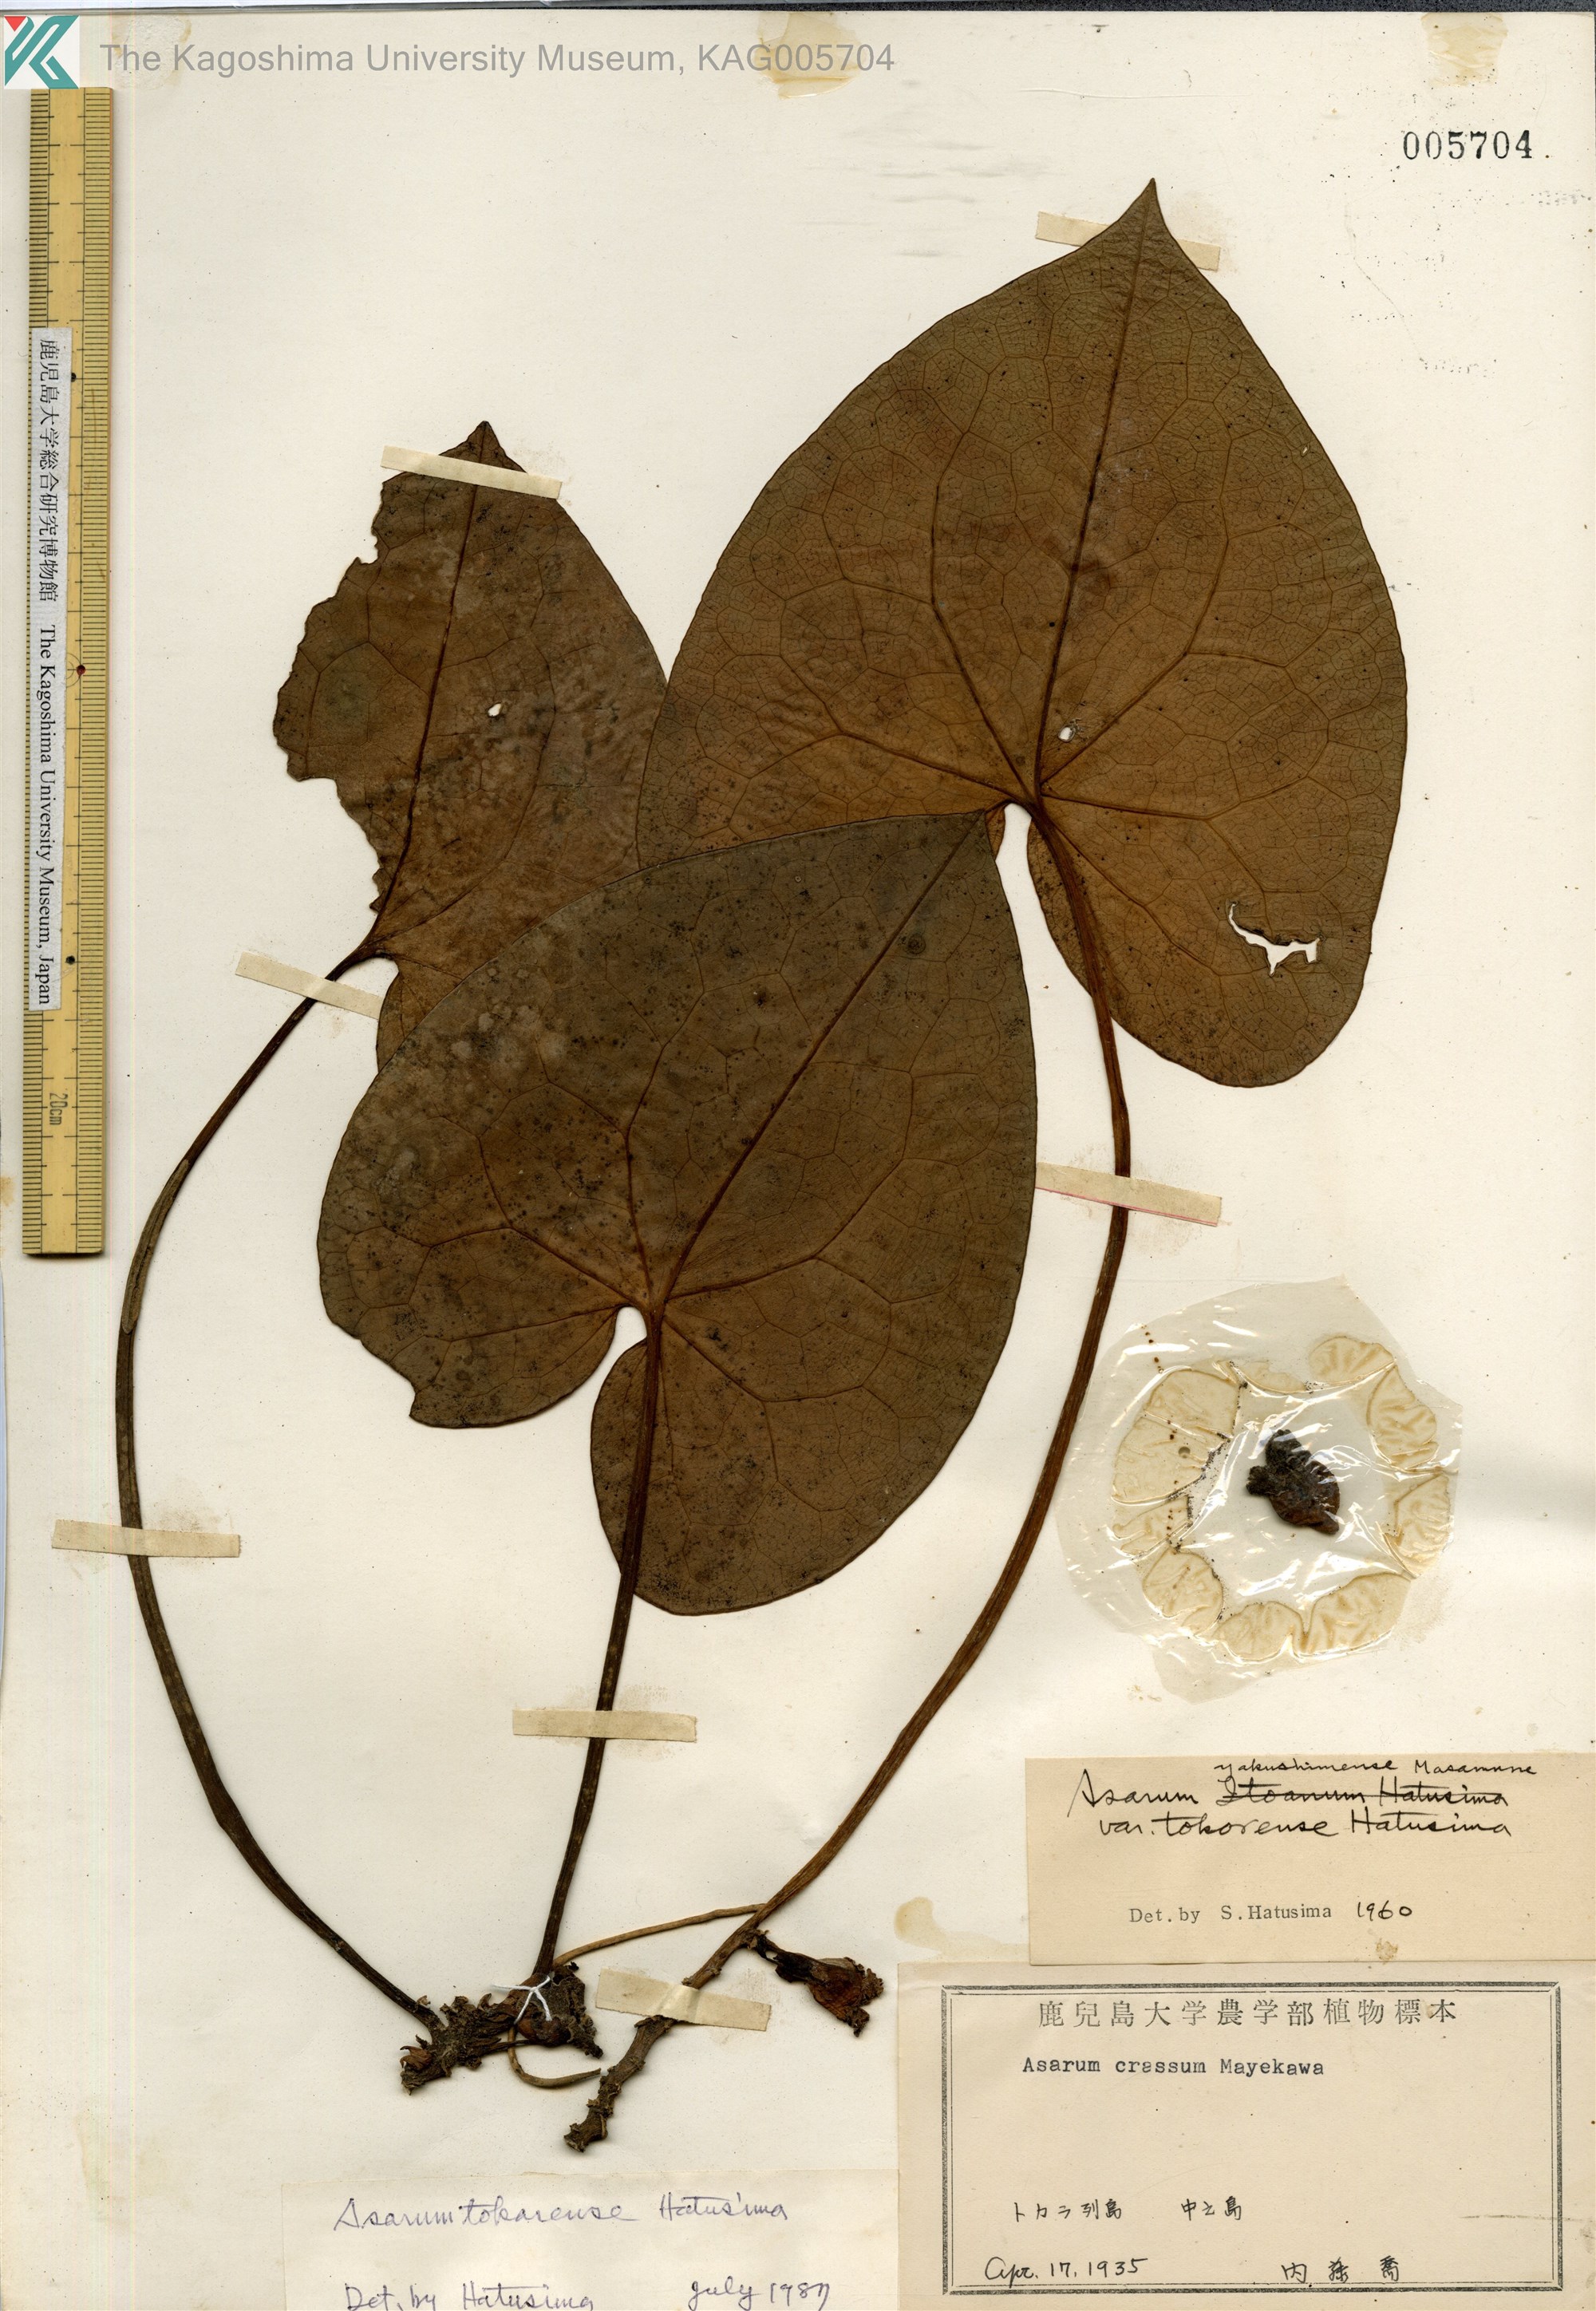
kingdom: Plantae
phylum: Tracheophyta
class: Magnoliopsida
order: Piperales
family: Aristolochiaceae
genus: Asarum
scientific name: Asarum tokarense
